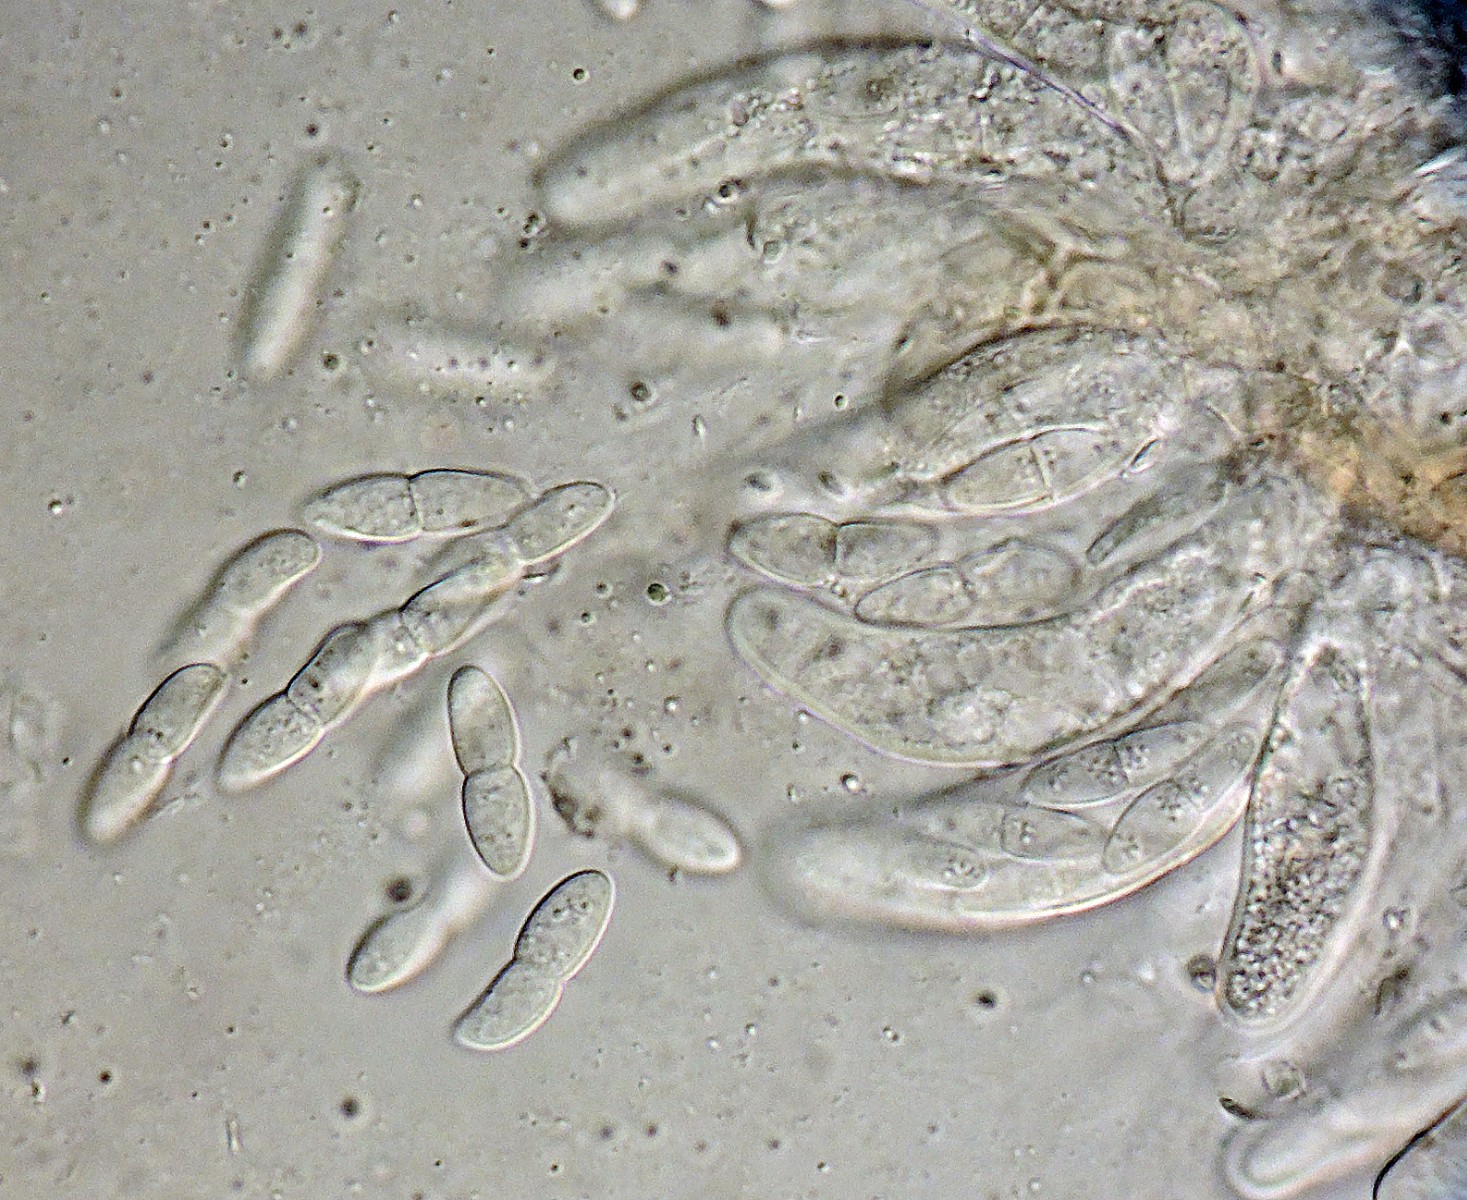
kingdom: Fungi
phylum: Ascomycota
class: Dothideomycetes
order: Mycosphaerellales
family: Mycosphaerellaceae
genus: Mycosphaerella
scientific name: Mycosphaerella lineolata
